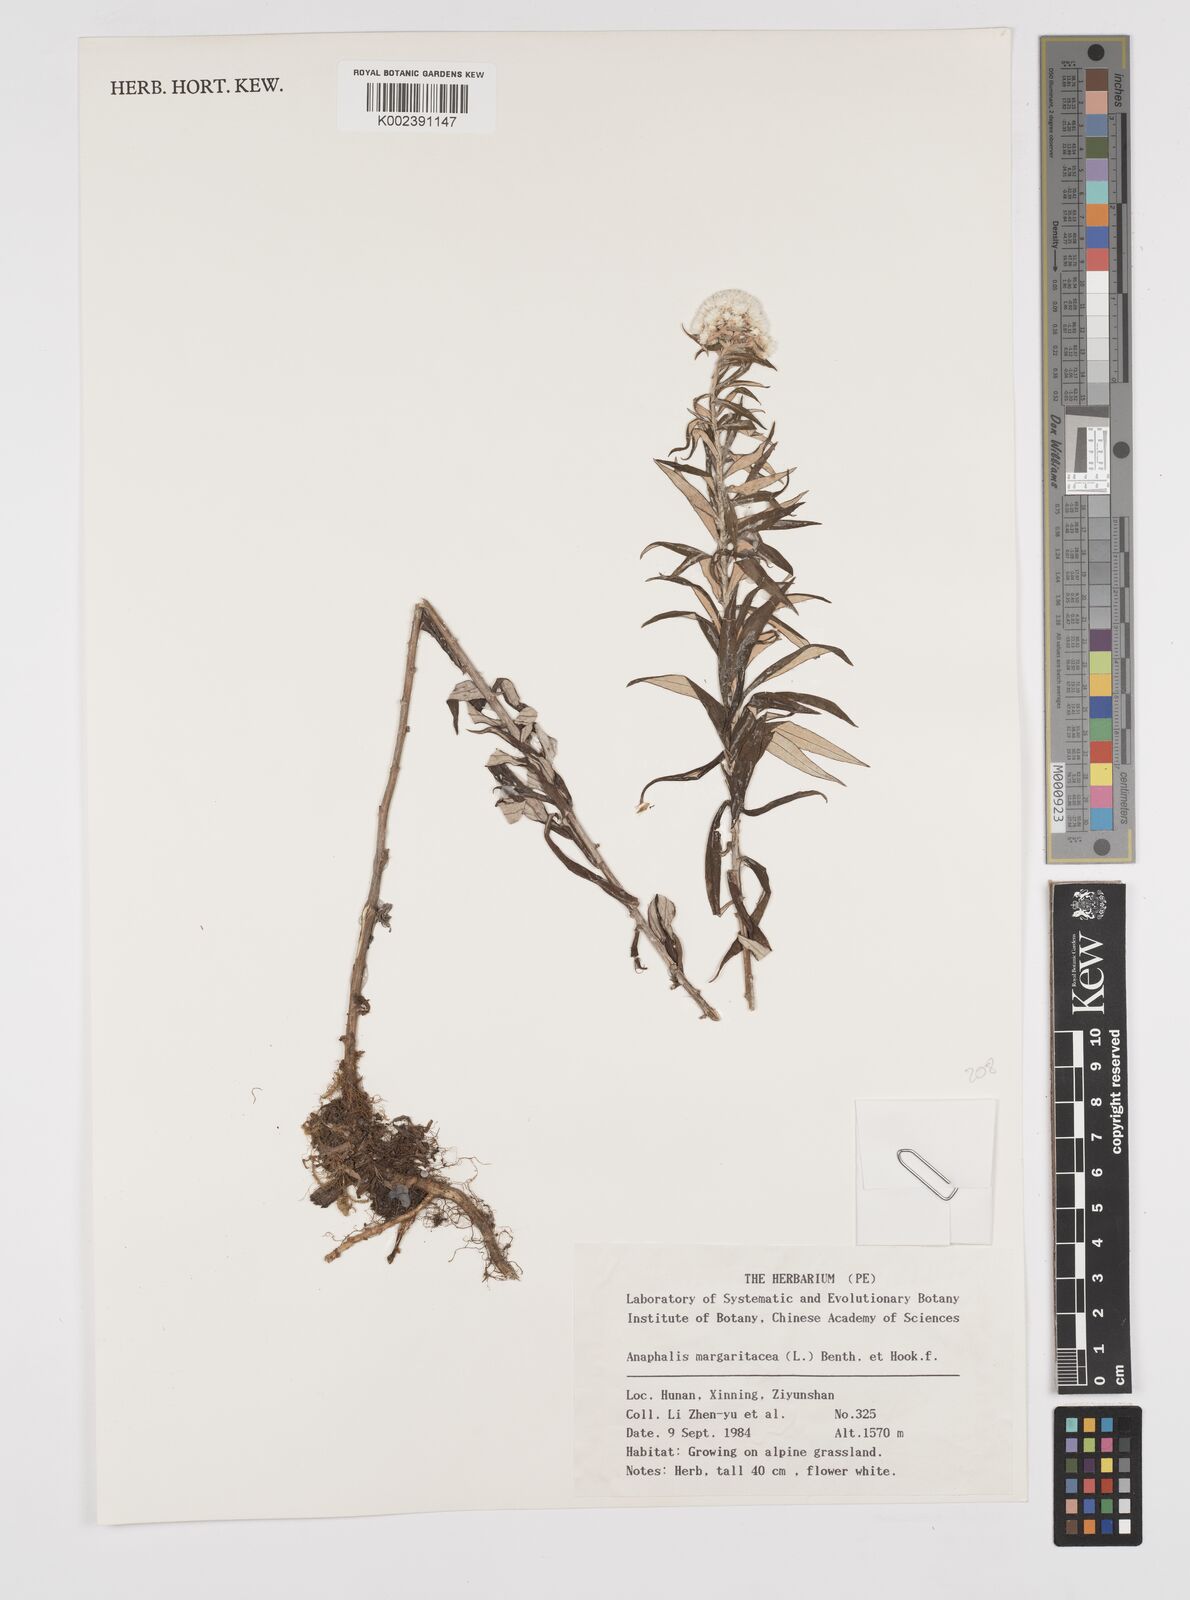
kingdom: Plantae
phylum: Tracheophyta
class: Magnoliopsida
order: Asterales
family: Asteraceae
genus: Anaphalis
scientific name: Anaphalis margaritacea
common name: Pearly everlasting
